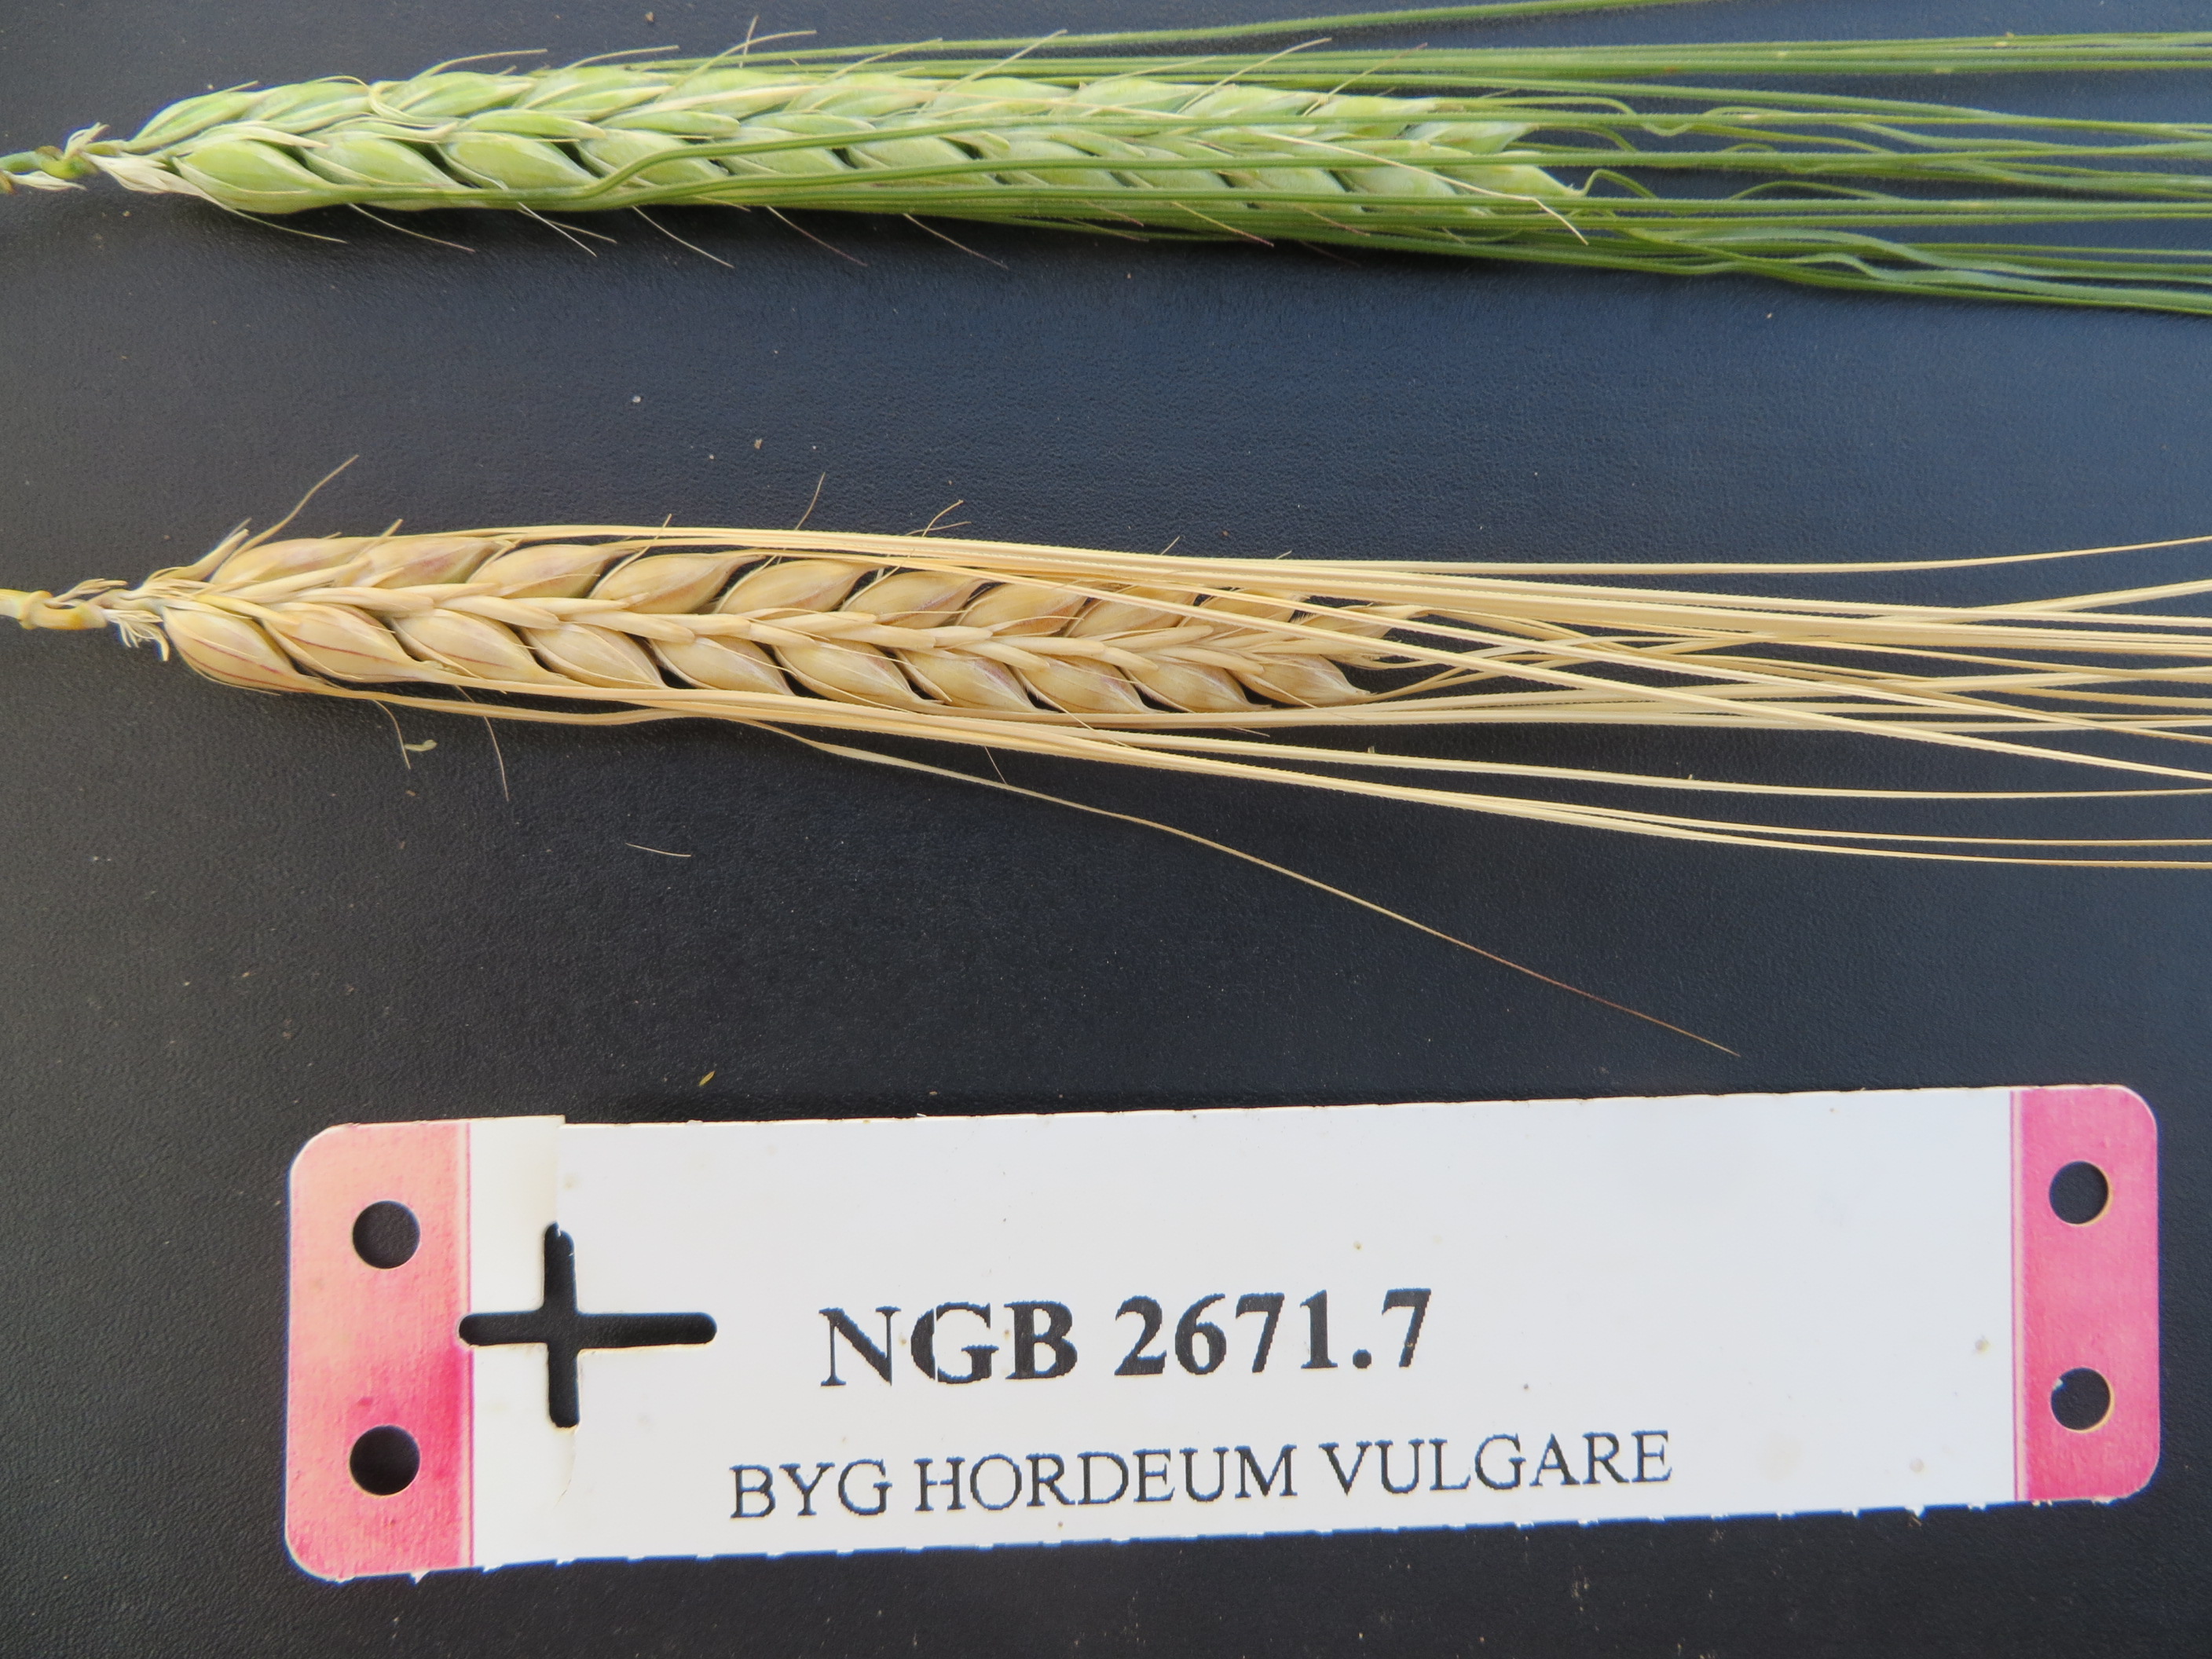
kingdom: Plantae
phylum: Tracheophyta
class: Liliopsida
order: Poales
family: Poaceae
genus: Hordeum
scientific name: Hordeum vulgare
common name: Common barley
